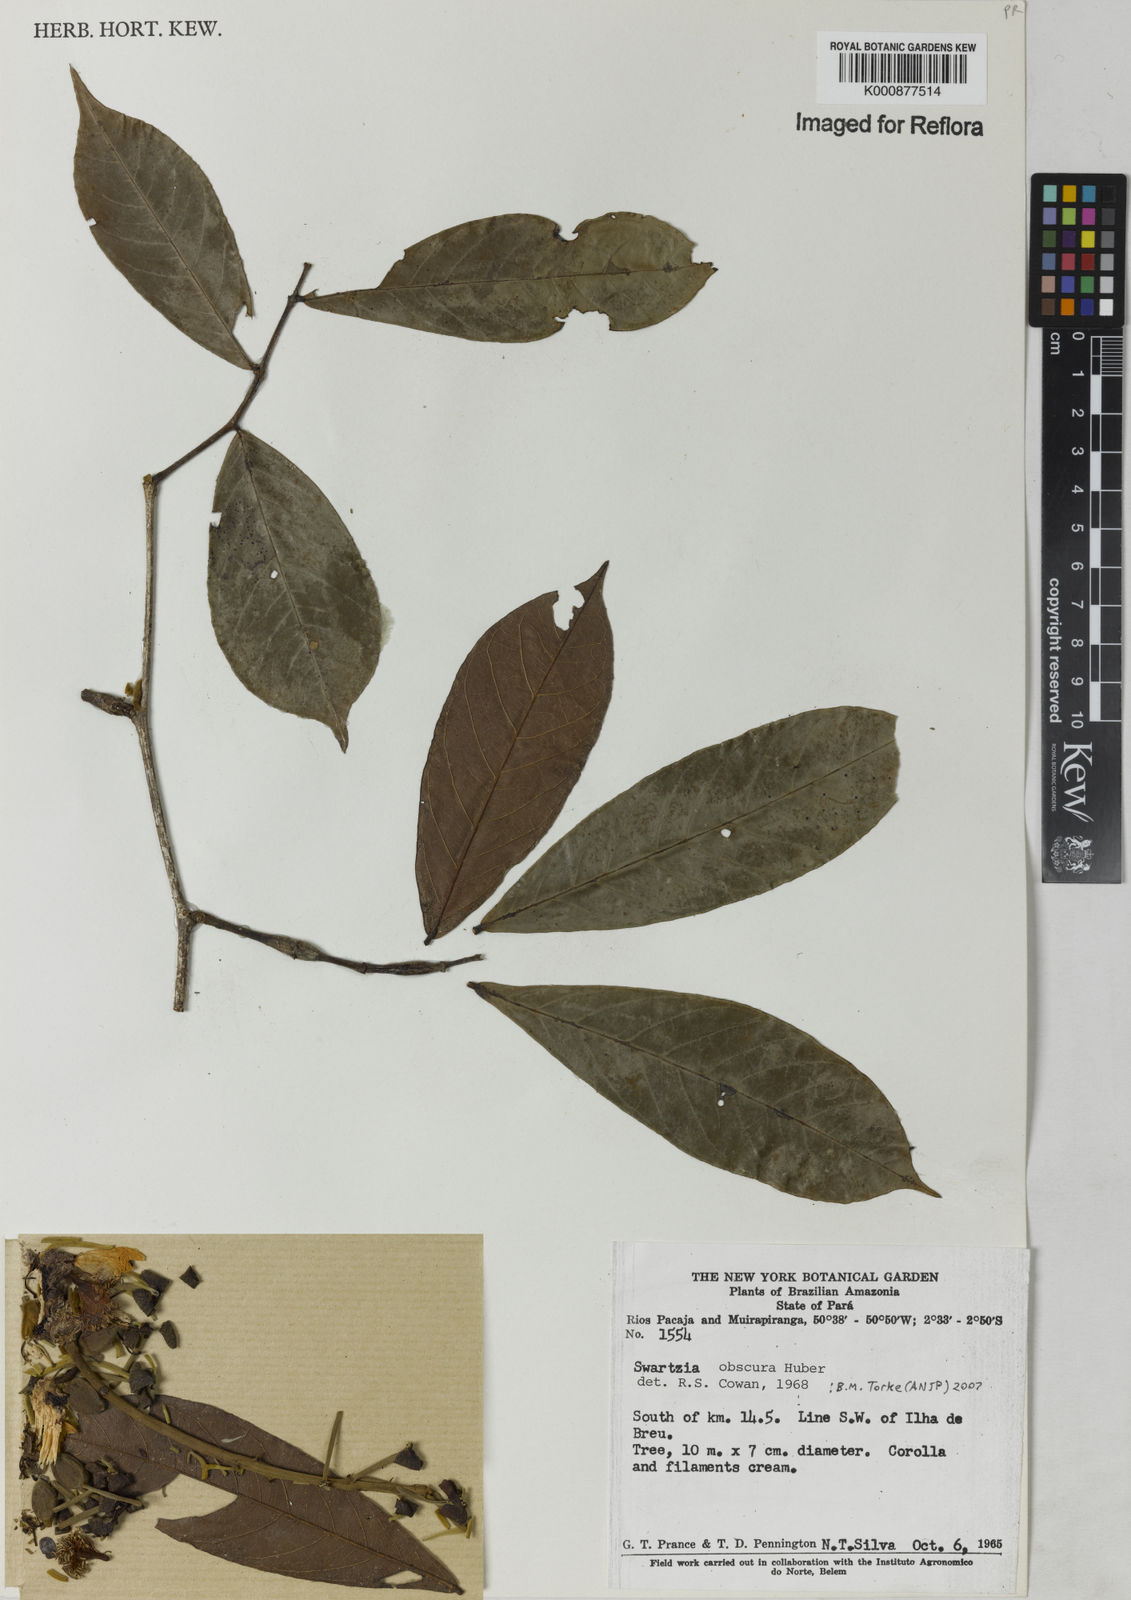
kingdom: Plantae
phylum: Tracheophyta
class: Magnoliopsida
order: Fabales
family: Fabaceae
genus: Swartzia
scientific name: Swartzia obscura
